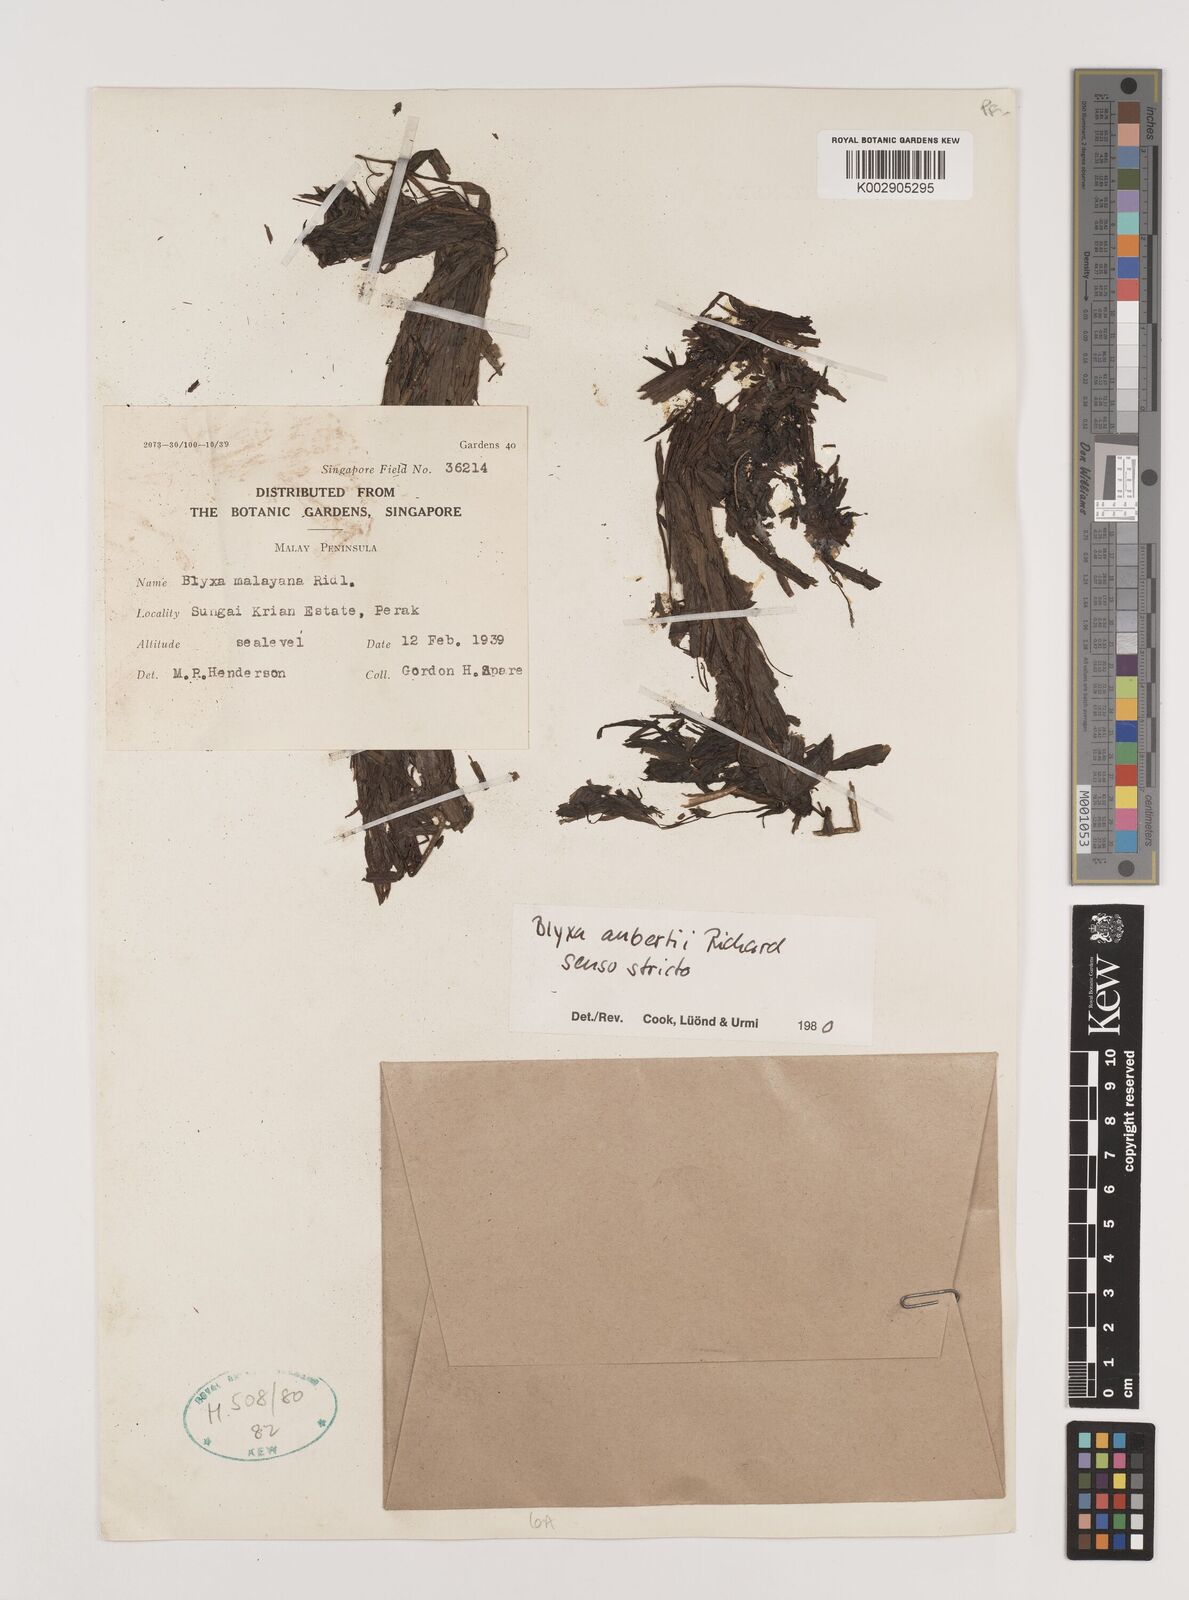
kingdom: Plantae
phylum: Tracheophyta
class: Liliopsida
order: Alismatales
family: Hydrocharitaceae
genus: Blyxa
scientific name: Blyxa aubertii
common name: Roundfruit blyxa
